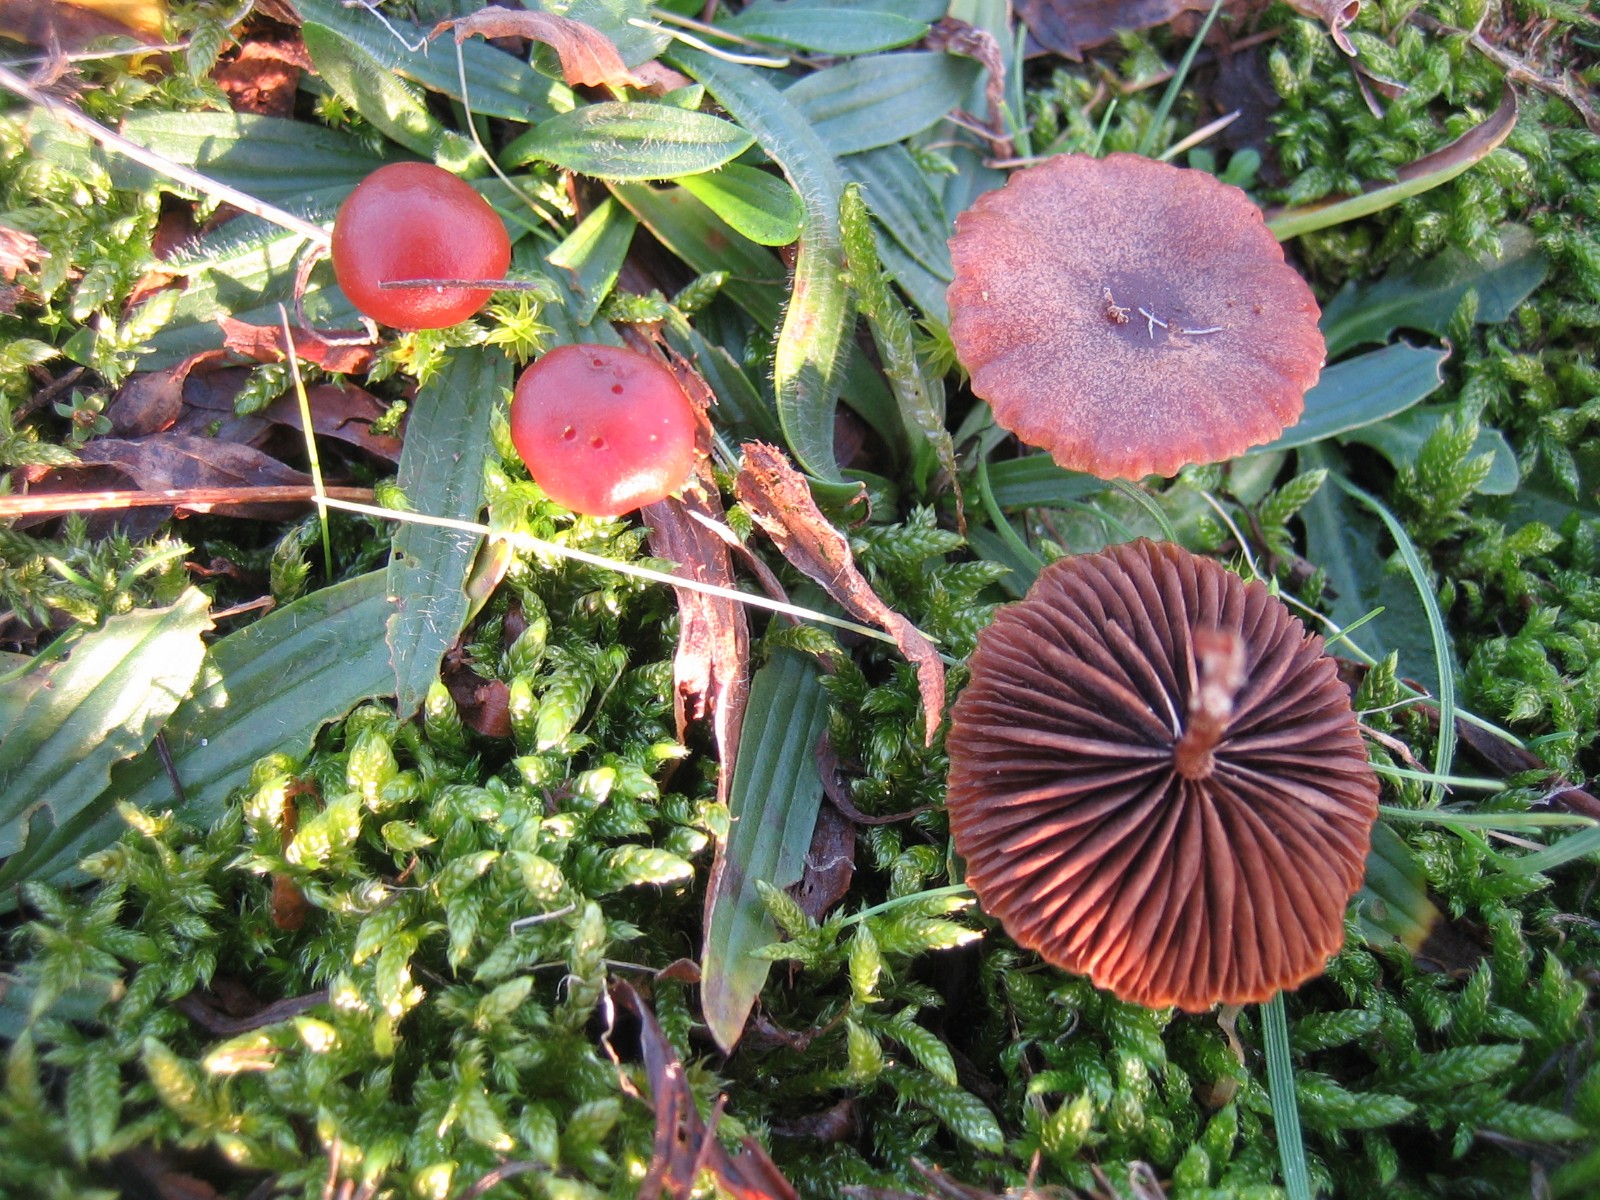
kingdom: Fungi
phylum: Basidiomycota
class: Agaricomycetes
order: Agaricales
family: Strophariaceae
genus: Deconica
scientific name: Deconica montana
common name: rødbrun stråhat
